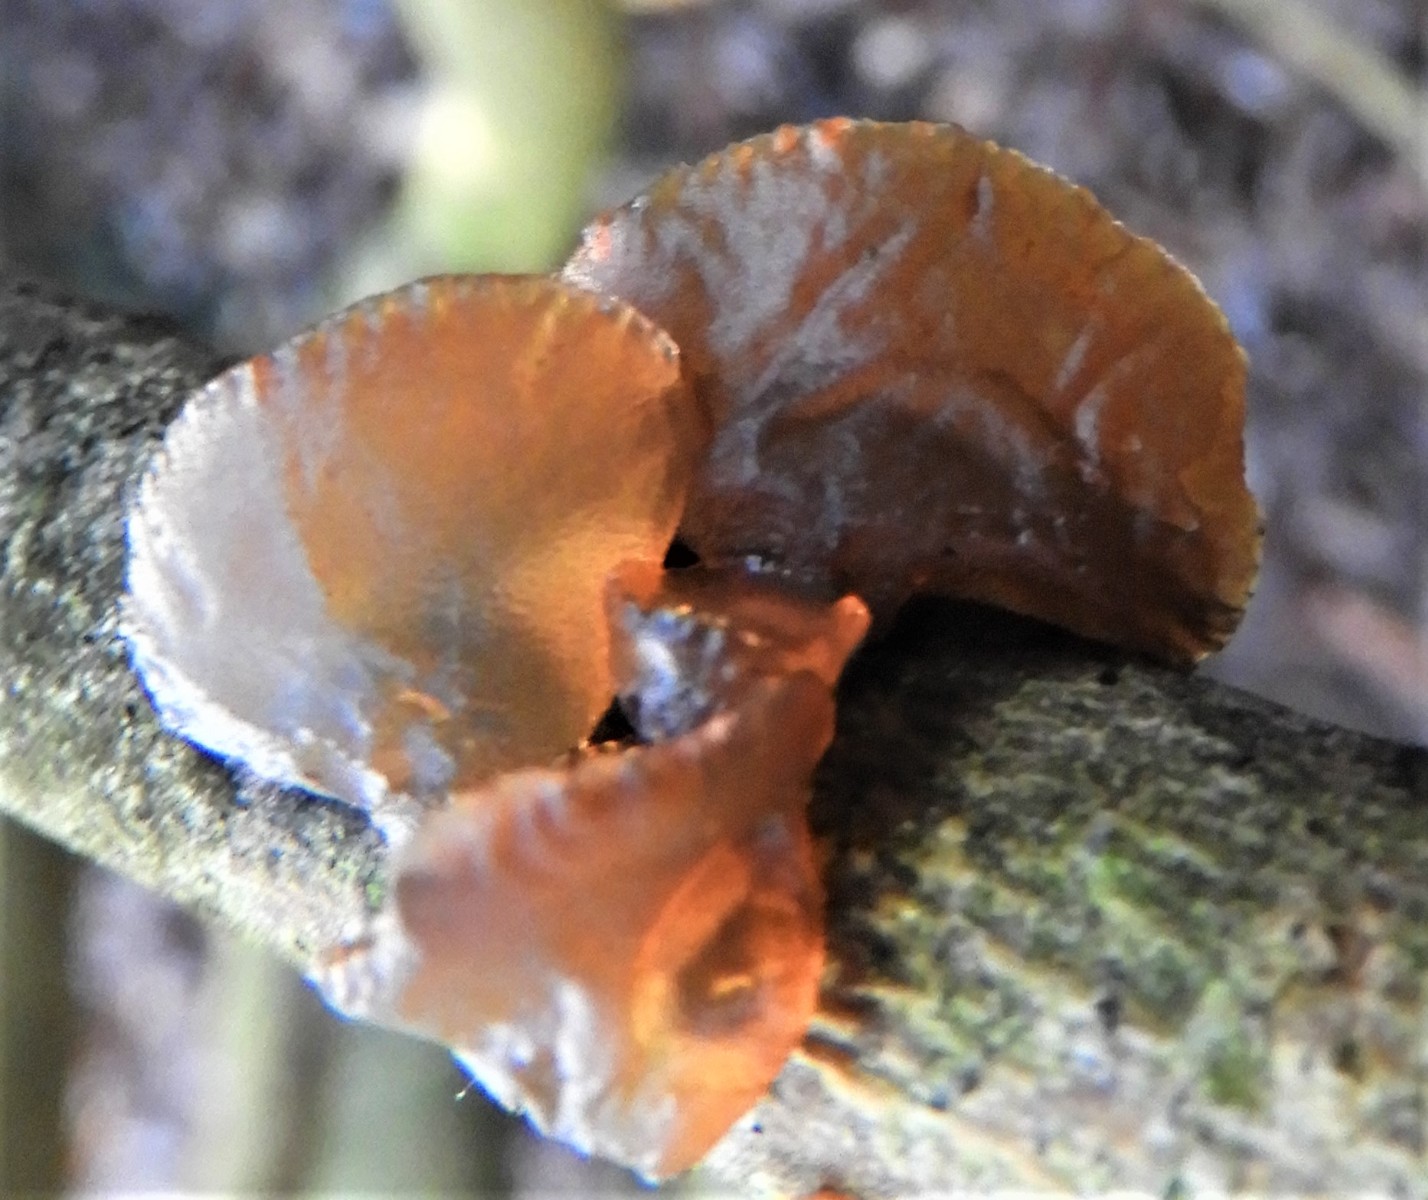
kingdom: Fungi
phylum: Basidiomycota
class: Agaricomycetes
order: Auriculariales
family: Auriculariaceae
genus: Exidia
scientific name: Exidia recisa
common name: pile-bævretop
